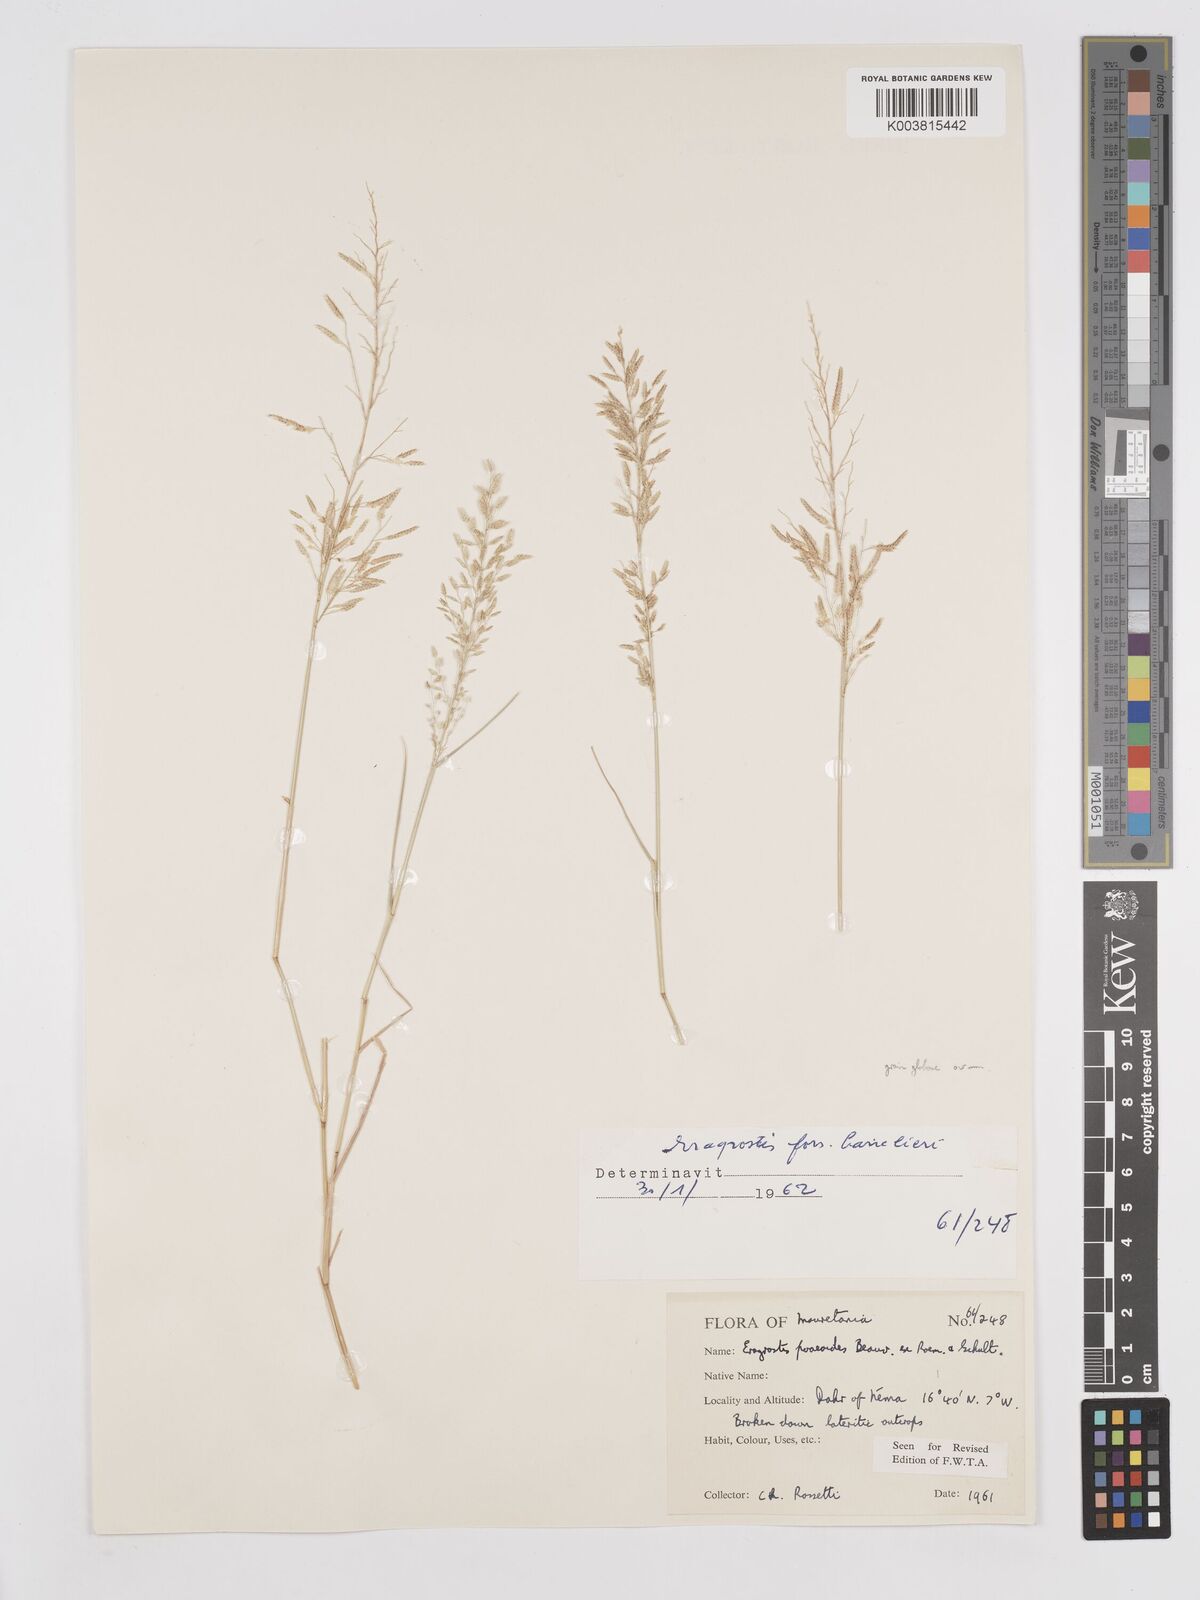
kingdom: Plantae
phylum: Tracheophyta
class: Liliopsida
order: Poales
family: Poaceae
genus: Eragrostis
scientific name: Eragrostis minor
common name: Small love-grass
